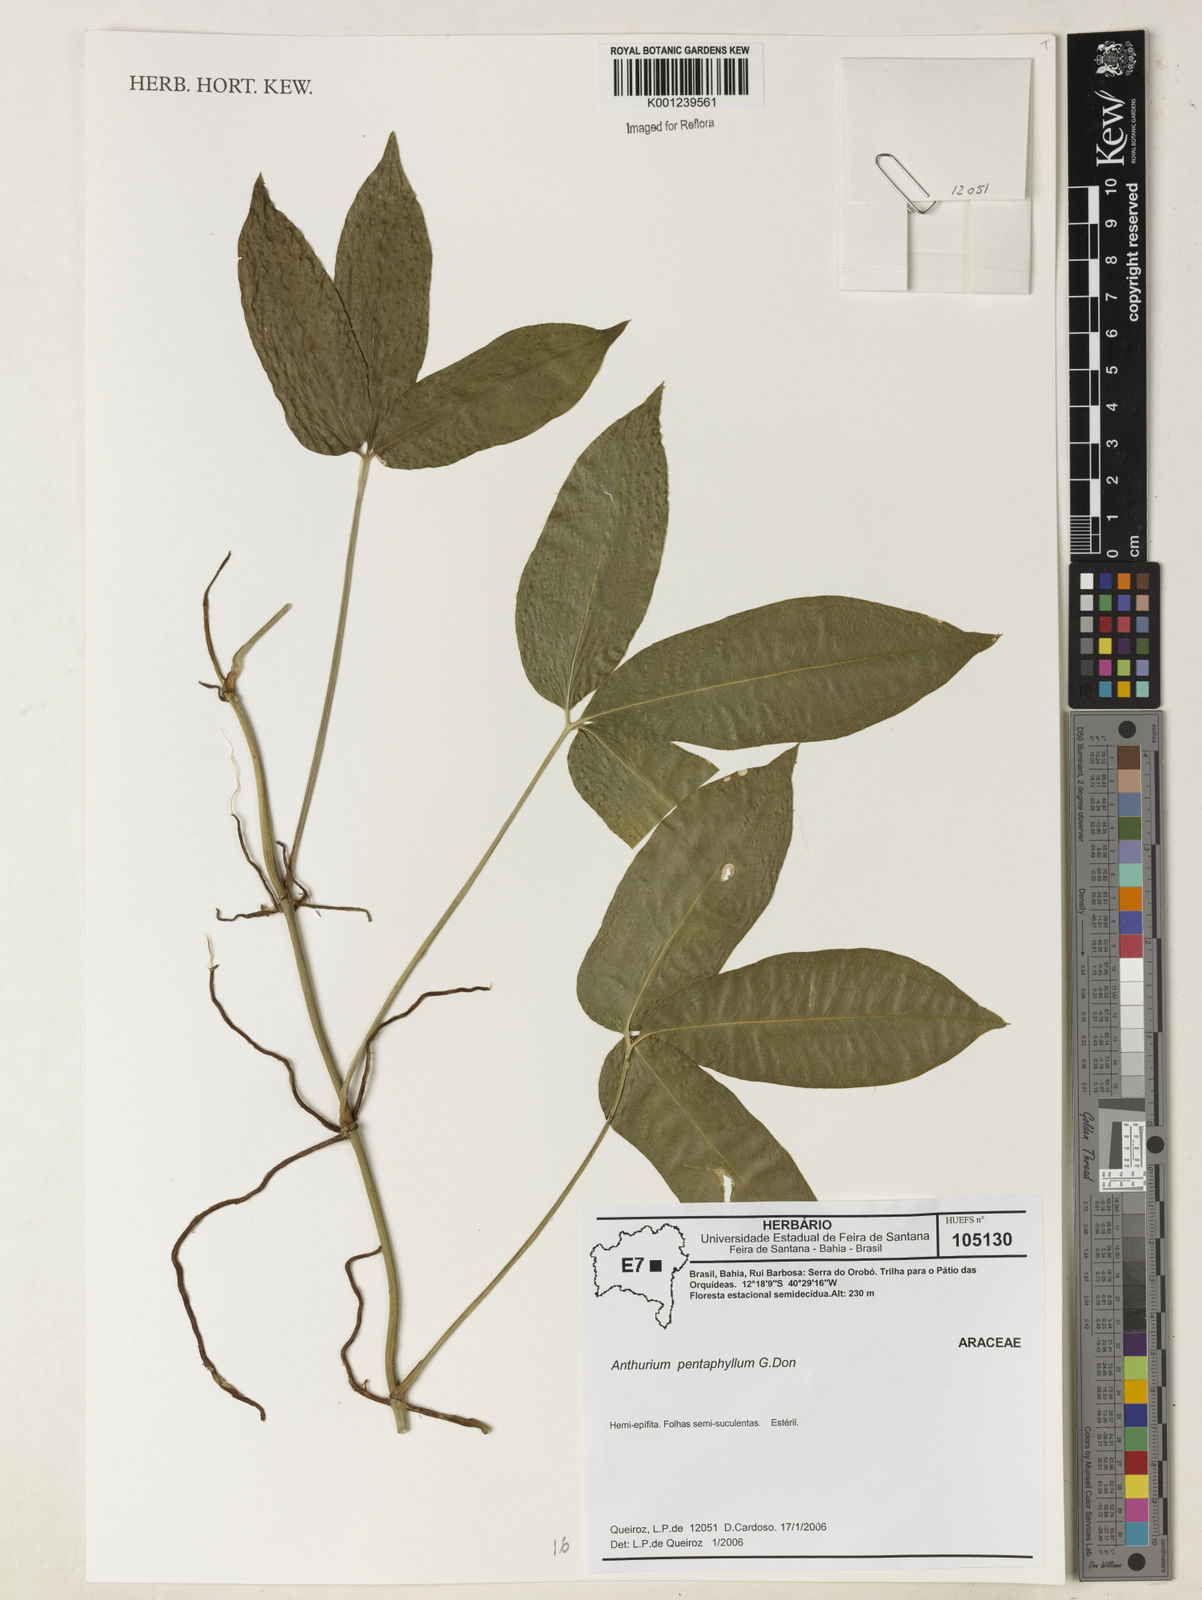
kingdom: Plantae
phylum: Tracheophyta
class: Liliopsida
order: Alismatales
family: Araceae
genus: Anthurium
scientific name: Anthurium pentaphyllum
